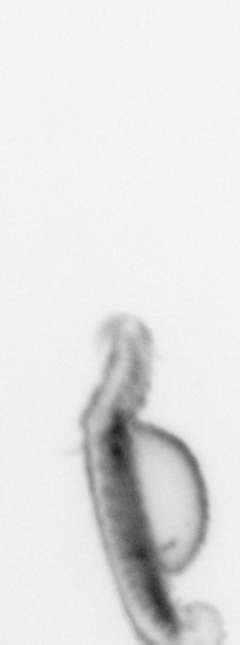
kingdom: Animalia
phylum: Annelida
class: Polychaeta
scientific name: Polychaeta
